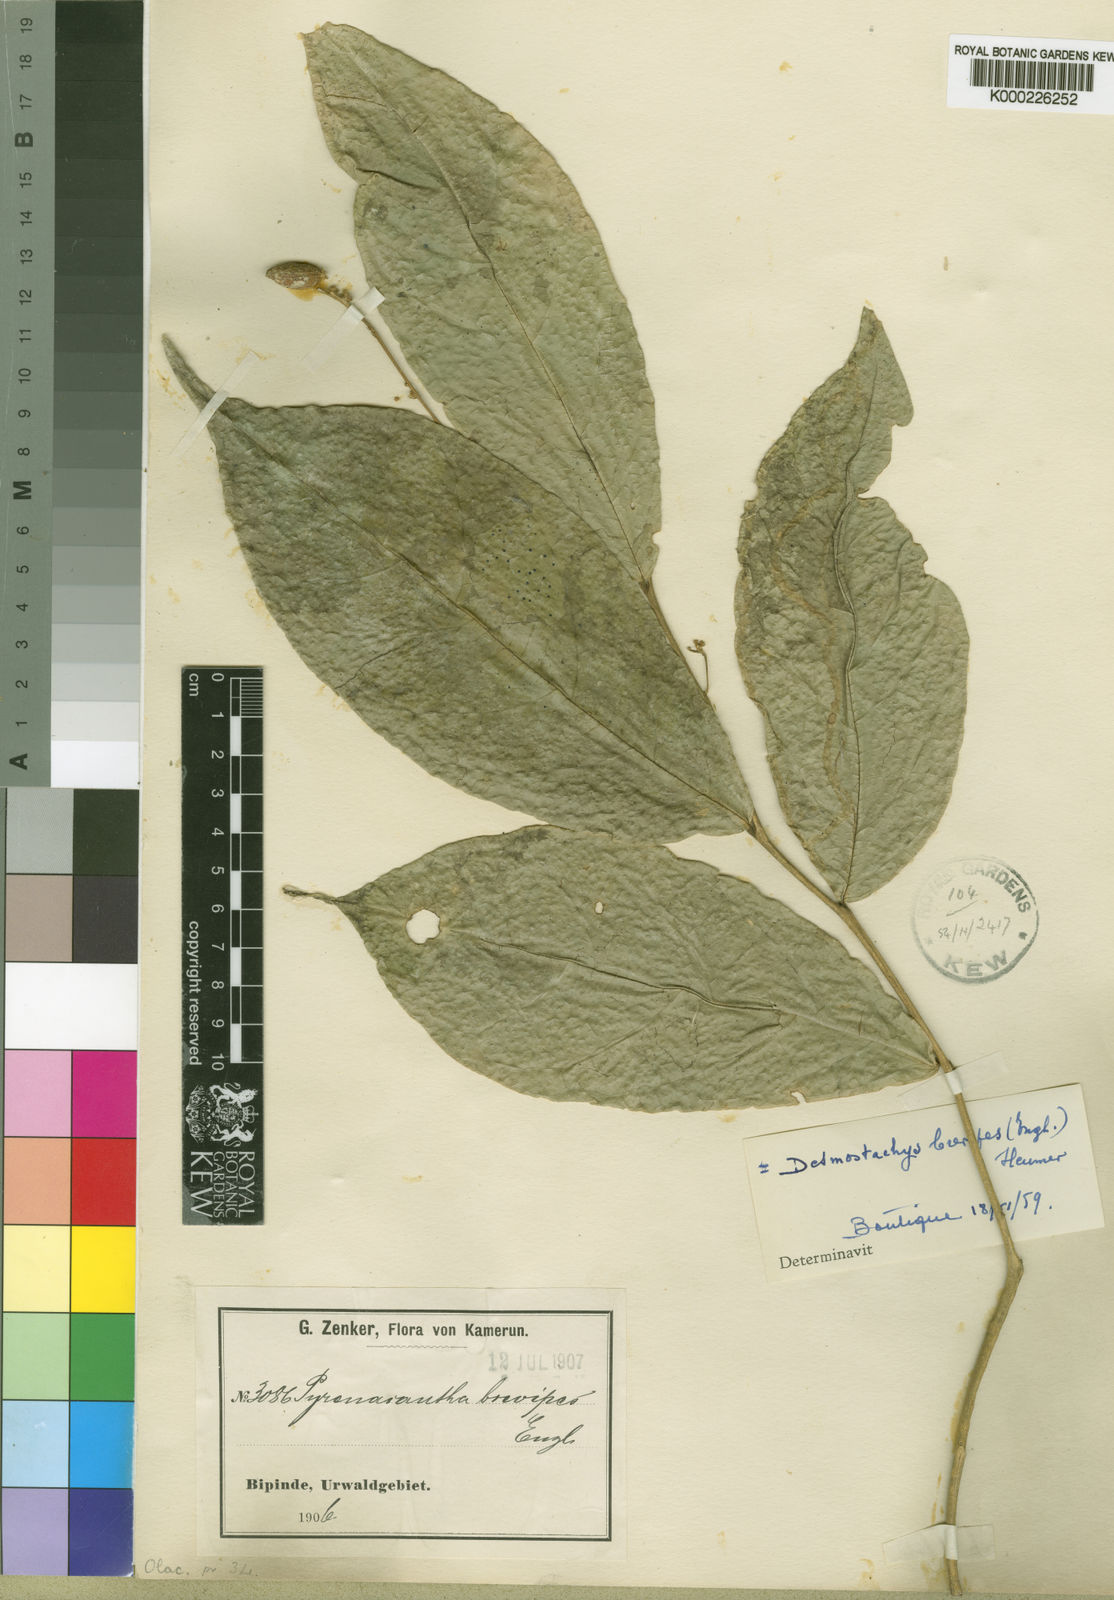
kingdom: Plantae
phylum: Tracheophyta
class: Magnoliopsida
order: Icacinales
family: Icacinaceae
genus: Vadensea
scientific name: Vadensea oblongifolia
